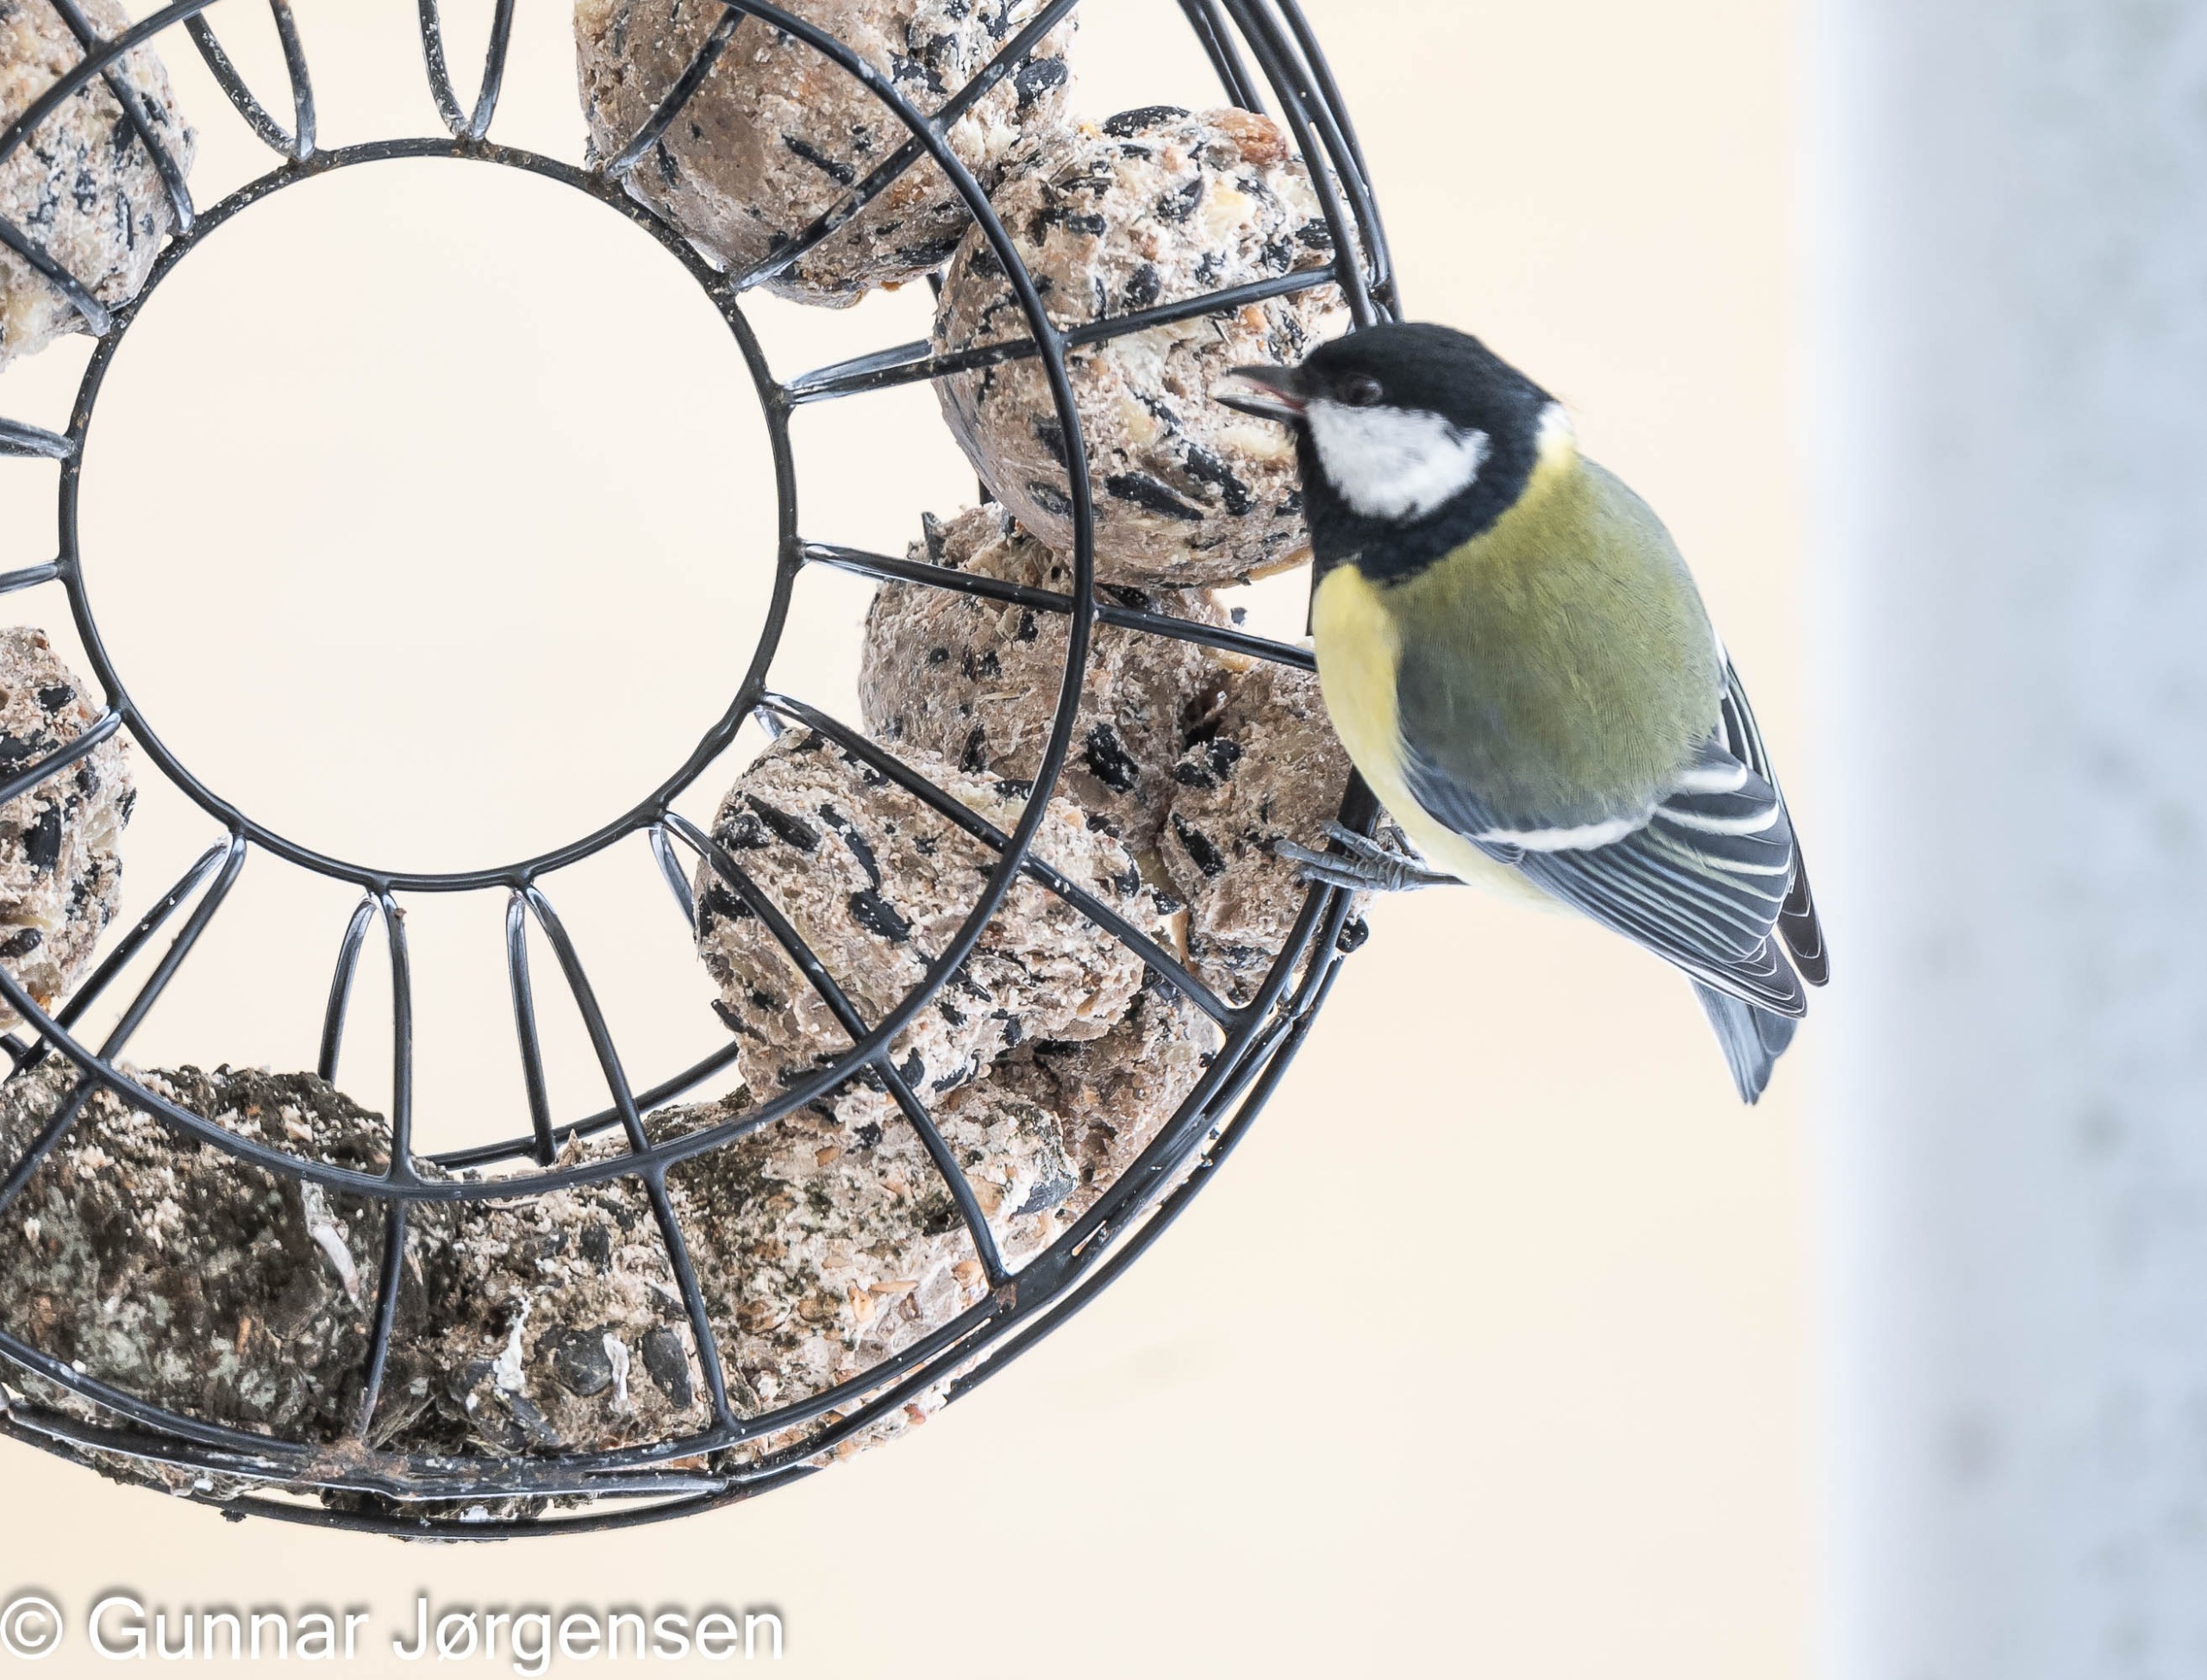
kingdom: Animalia
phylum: Chordata
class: Aves
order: Passeriformes
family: Paridae
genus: Parus
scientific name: Parus major
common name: Musvit
